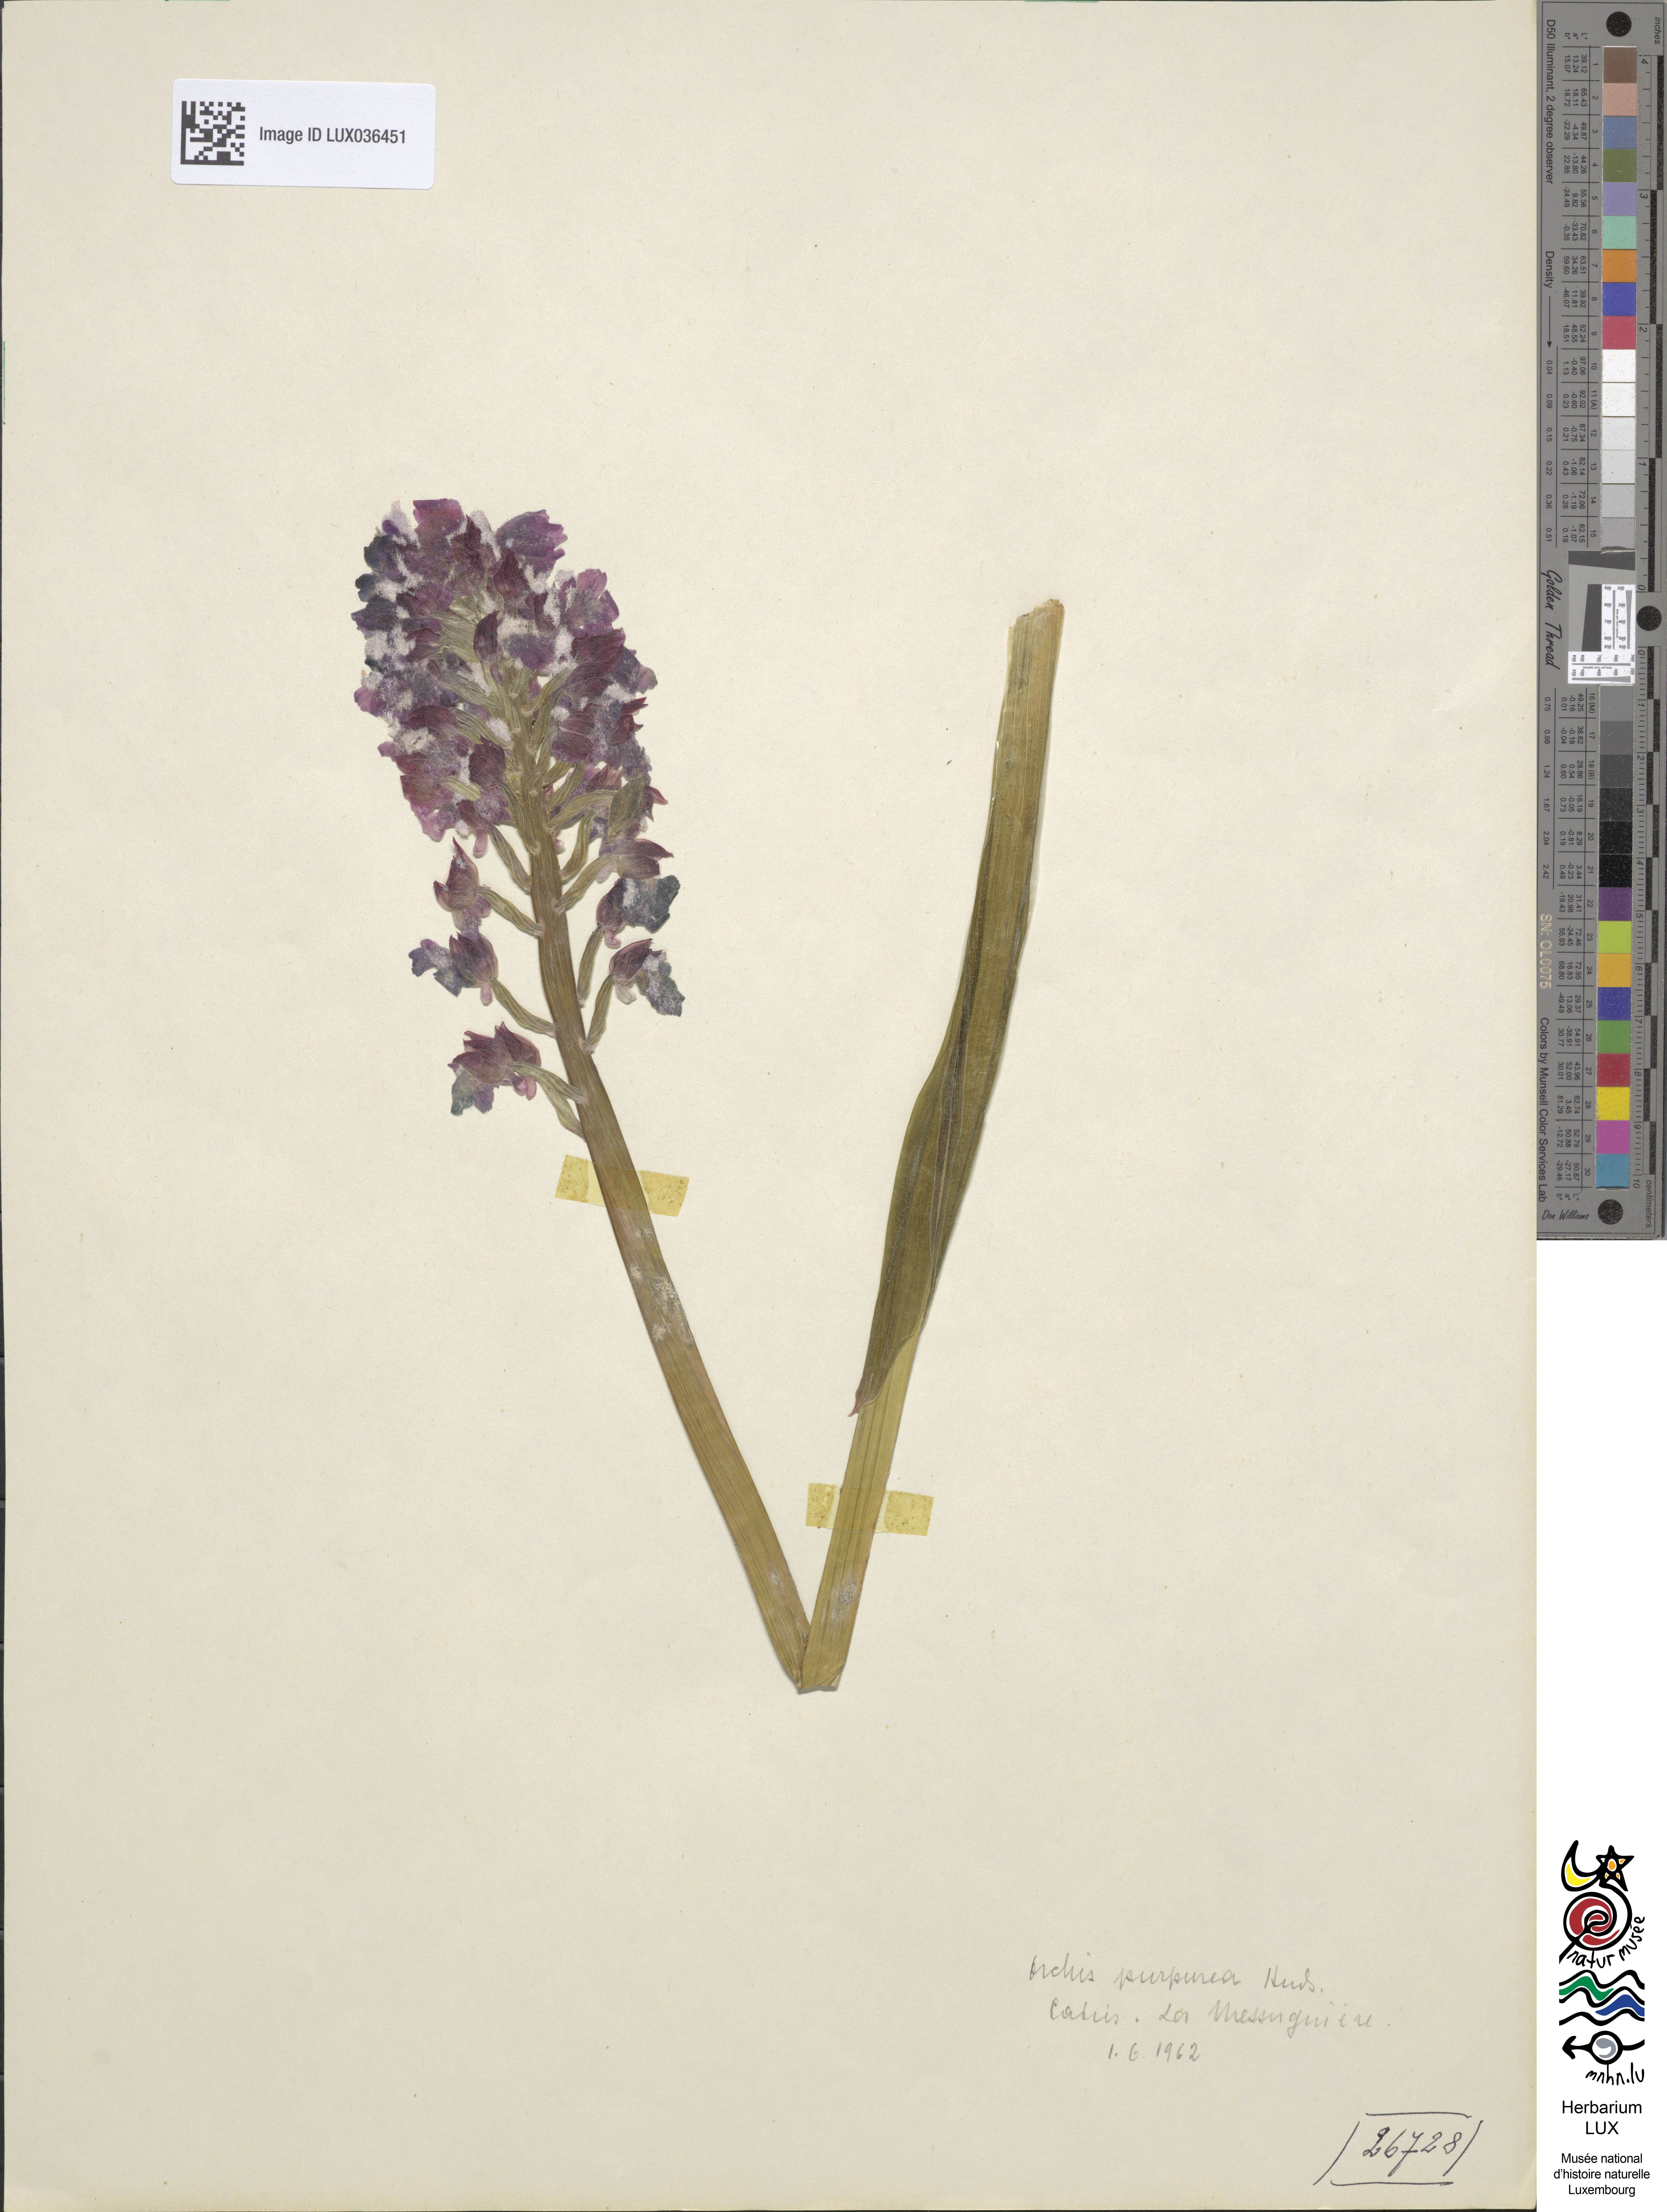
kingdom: Plantae
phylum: Tracheophyta
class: Liliopsida
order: Asparagales
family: Orchidaceae
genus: Orchis
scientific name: Orchis purpurea
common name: Lady orchid
